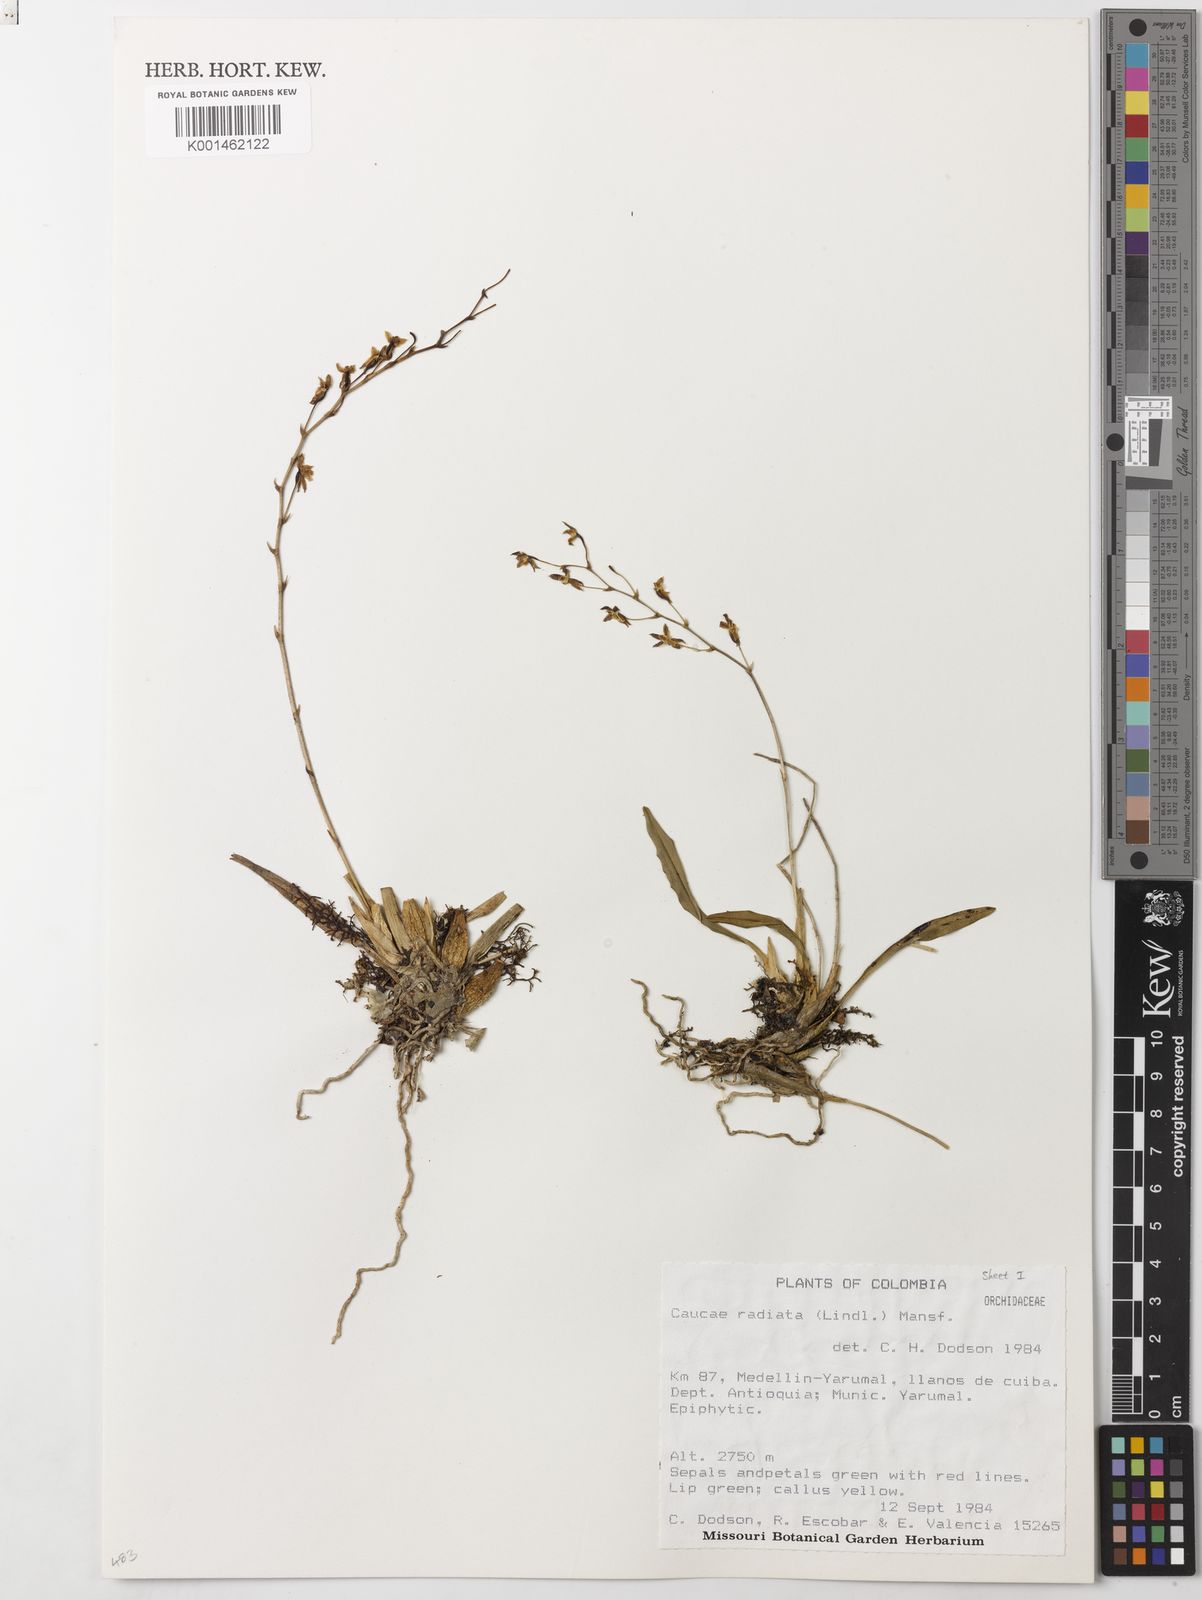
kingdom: Plantae
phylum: Tracheophyta
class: Liliopsida
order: Asparagales
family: Orchidaceae
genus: Caucaea
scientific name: Caucaea radiata
